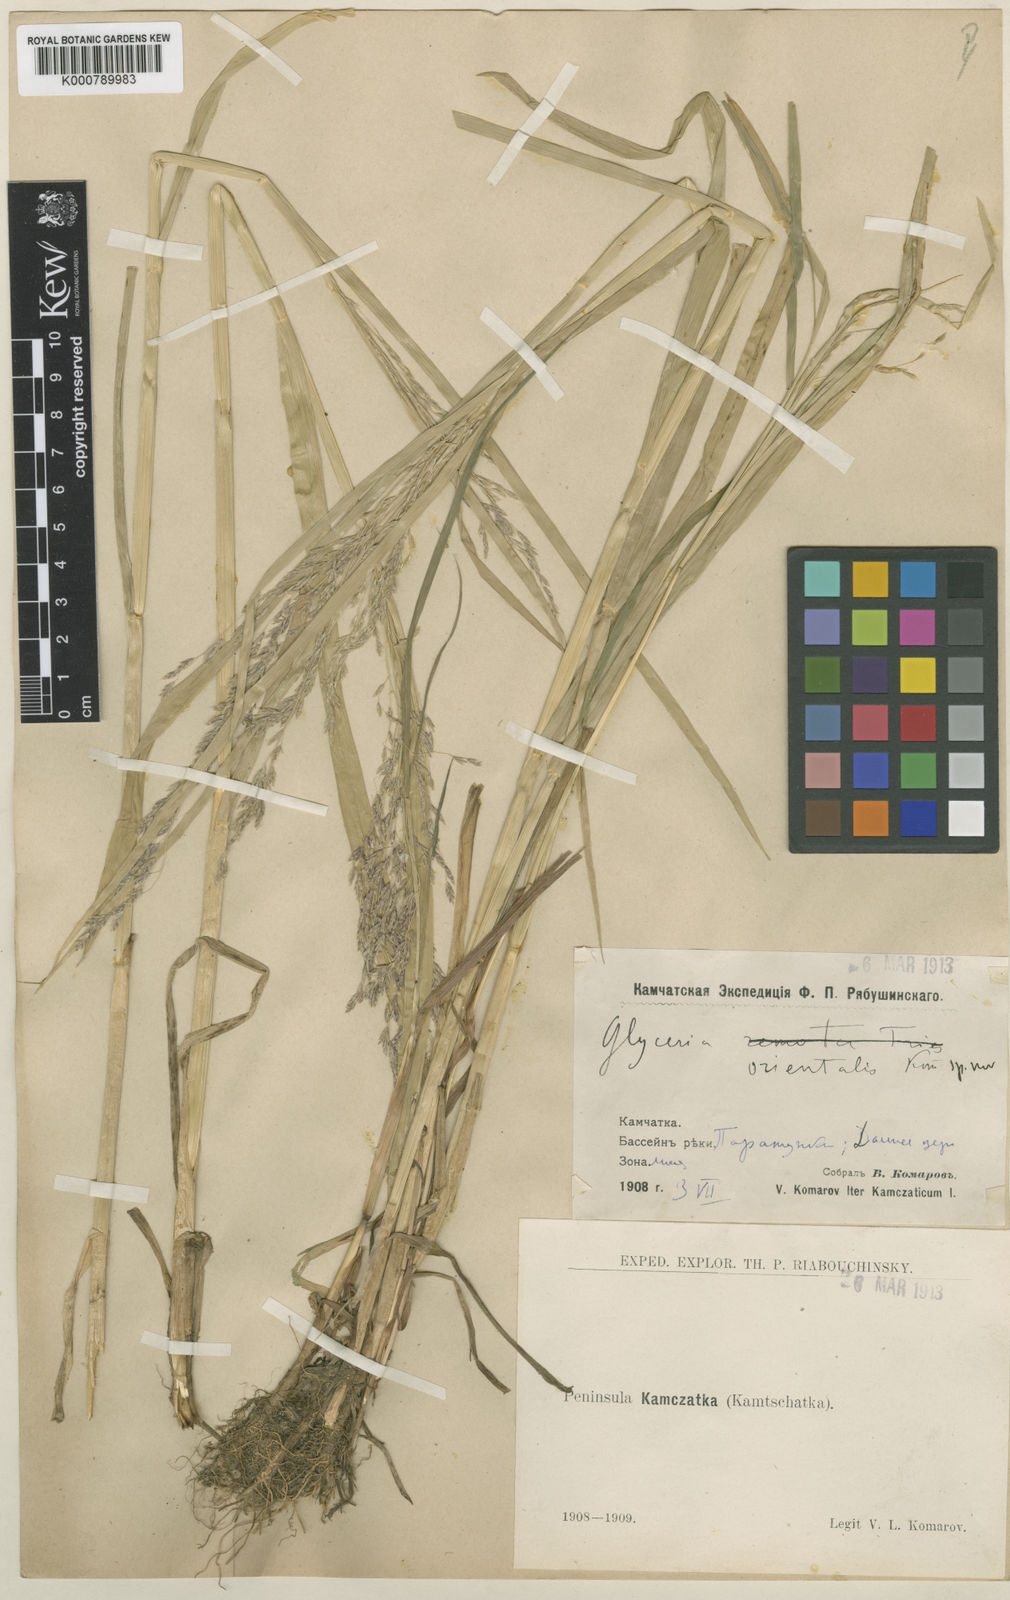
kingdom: Plantae
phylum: Tracheophyta
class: Liliopsida
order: Poales
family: Poaceae
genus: Glyceria
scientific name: Glyceria lithuanica
